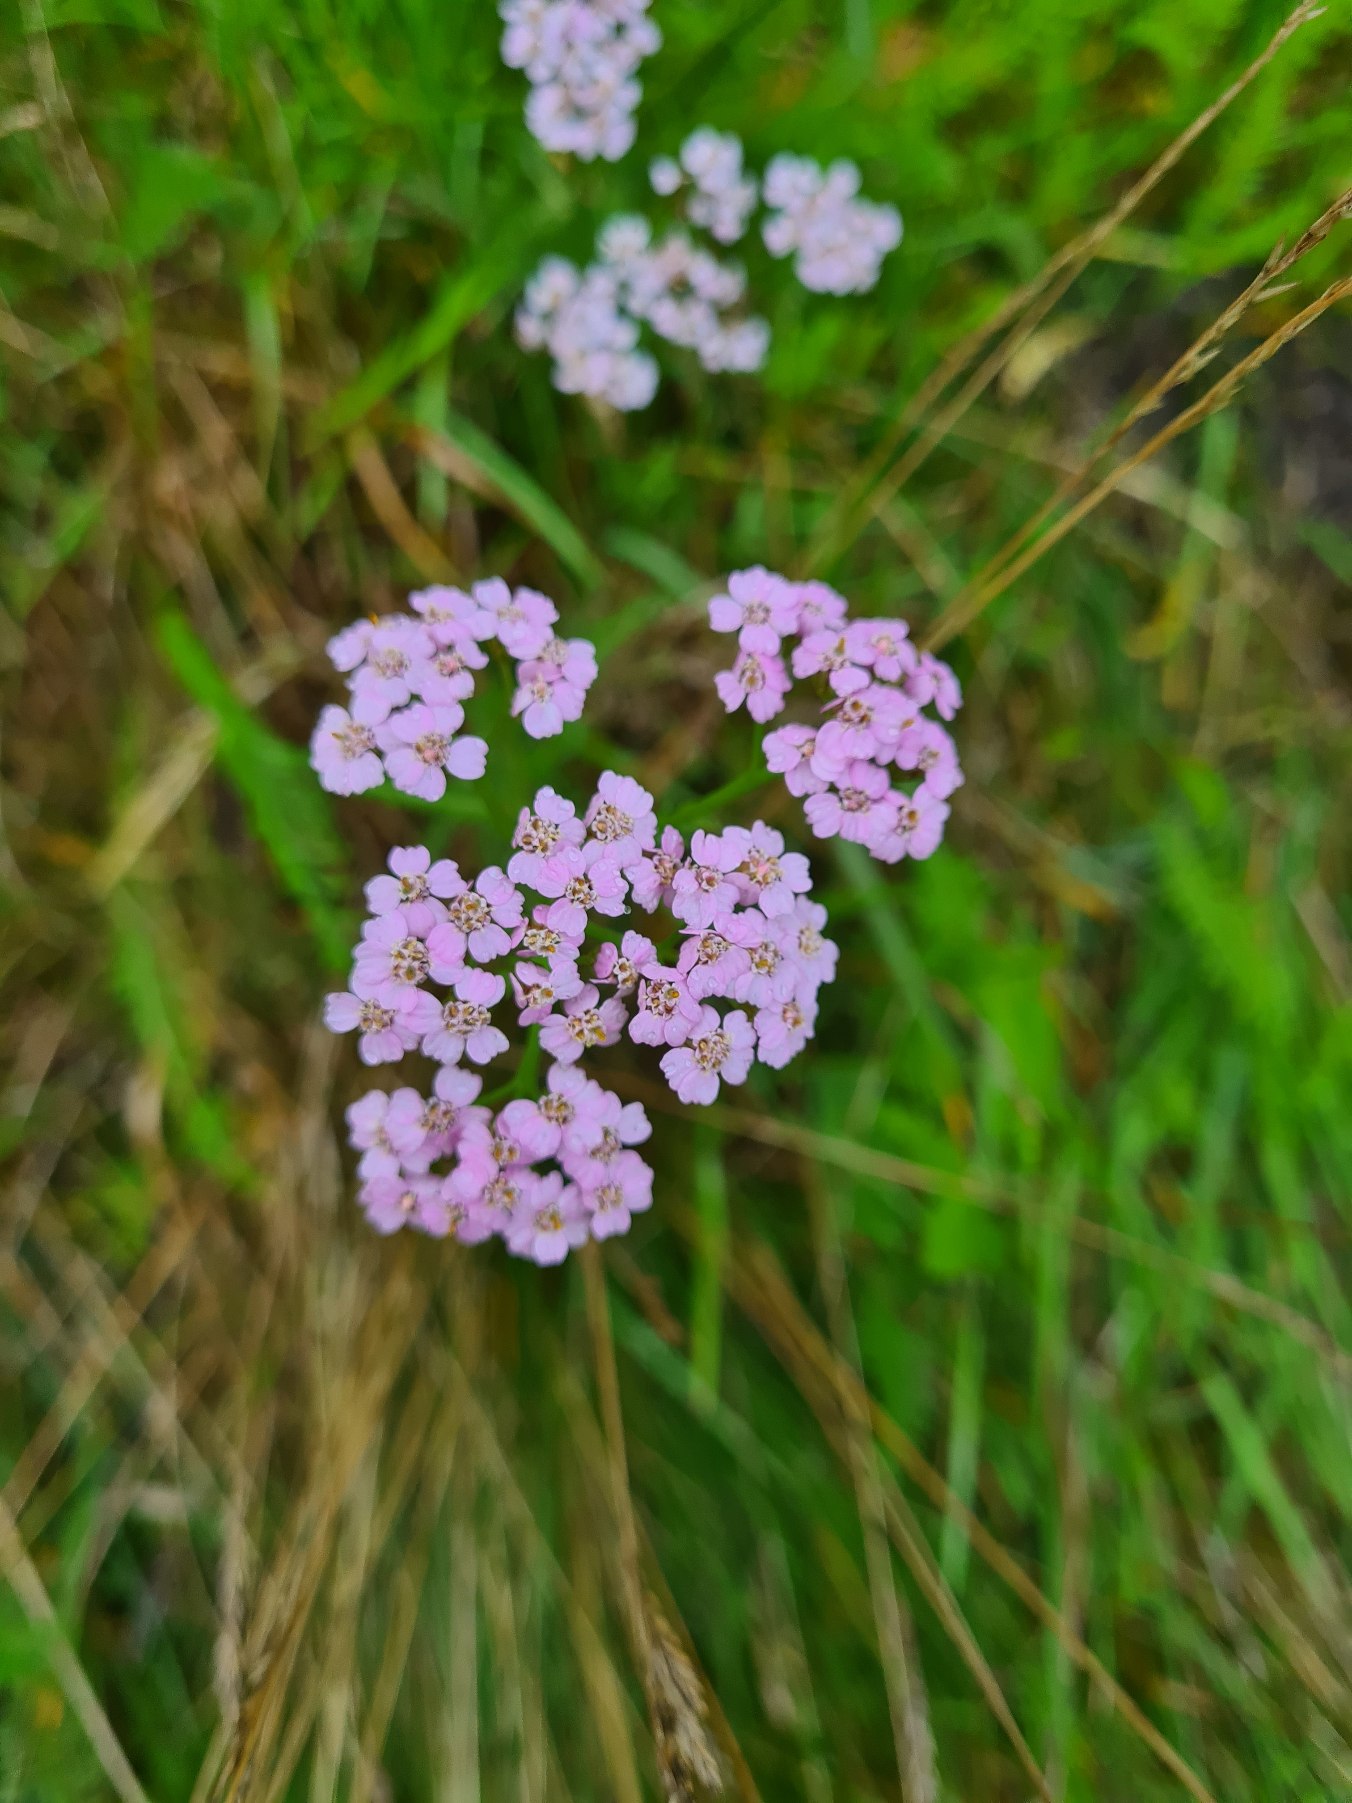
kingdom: Plantae
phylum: Tracheophyta
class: Magnoliopsida
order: Asterales
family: Asteraceae
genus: Achillea
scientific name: Achillea millefolium
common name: Almindelig røllike
